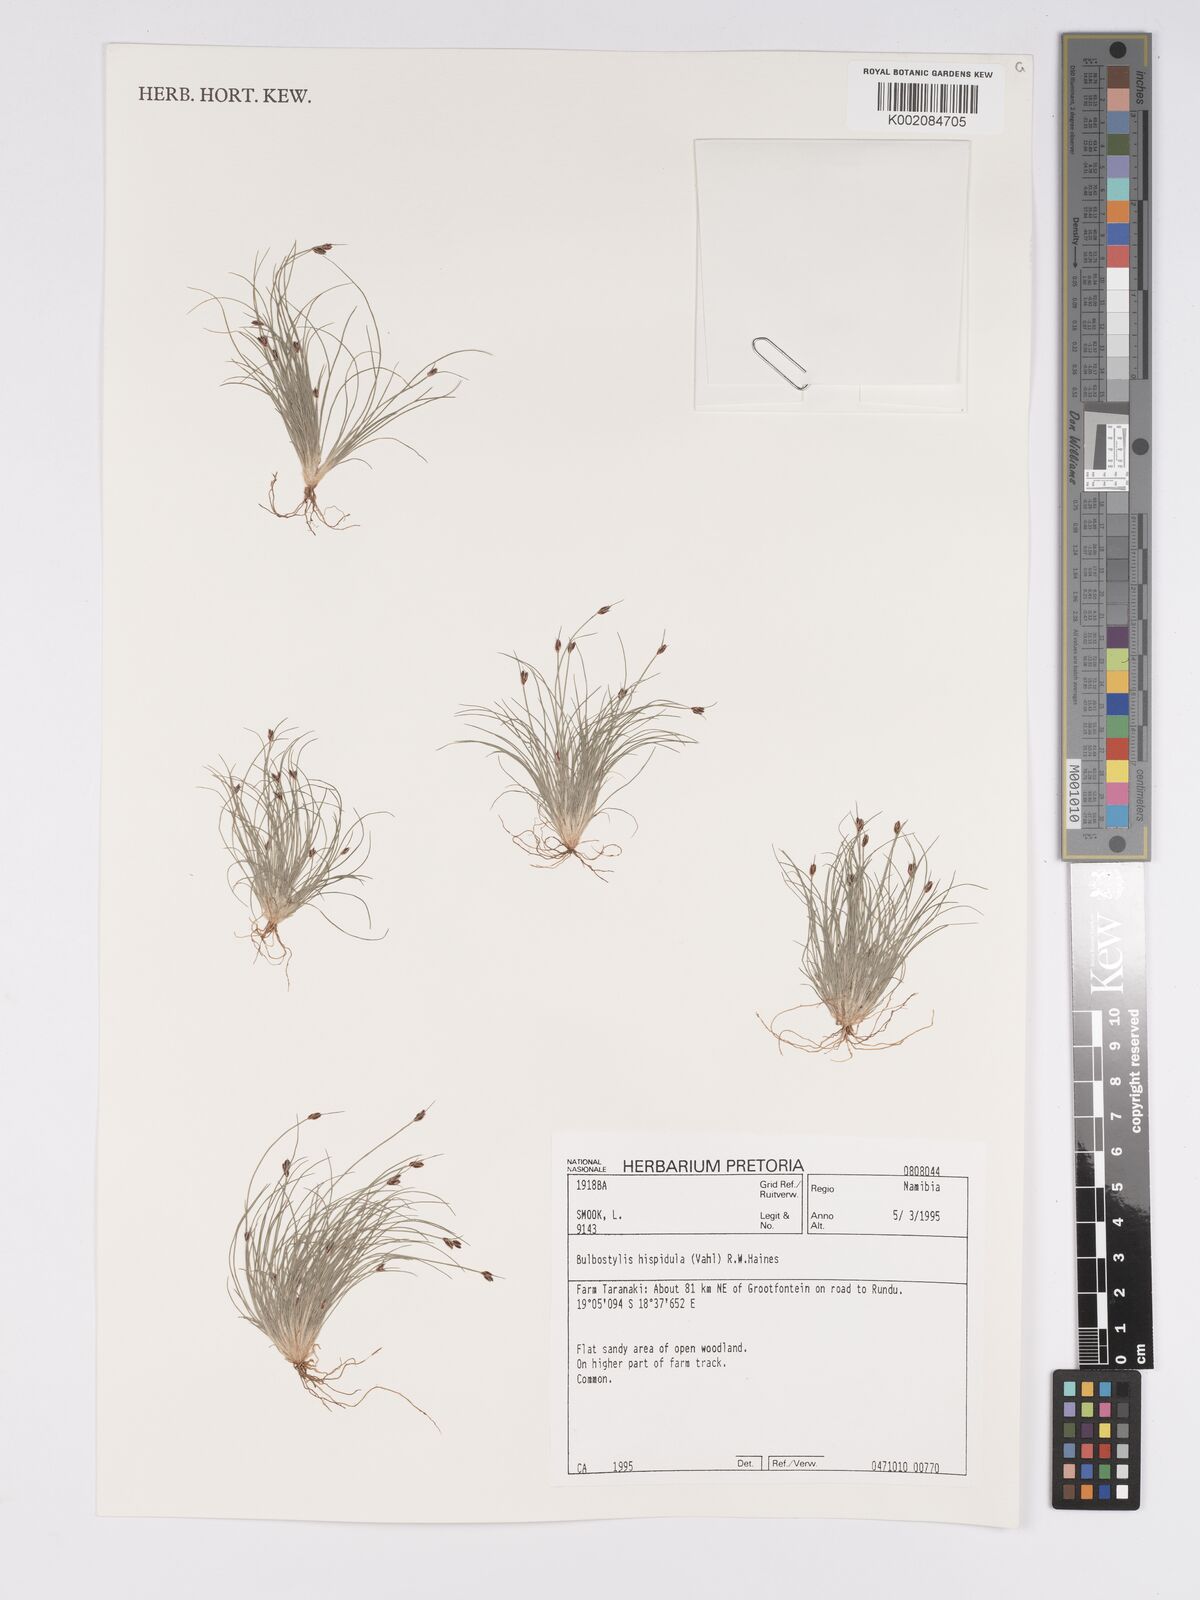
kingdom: Plantae
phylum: Tracheophyta
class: Liliopsida
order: Poales
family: Cyperaceae
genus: Bulbostylis
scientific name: Bulbostylis hispidula
